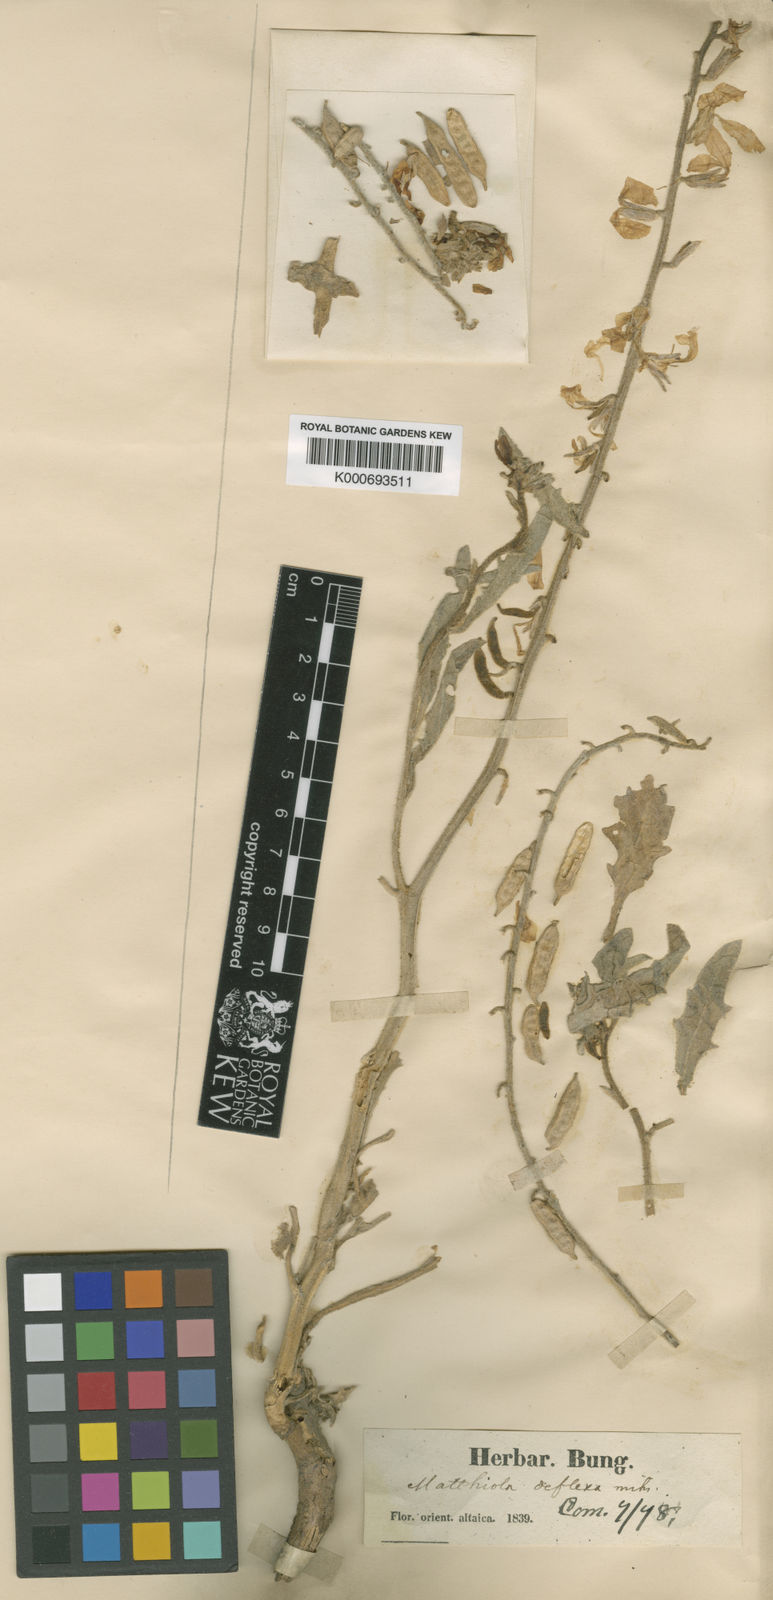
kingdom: Plantae
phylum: Tracheophyta
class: Magnoliopsida
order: Brassicales
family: Brassicaceae
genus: Microstigma
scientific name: Microstigma deflexum
